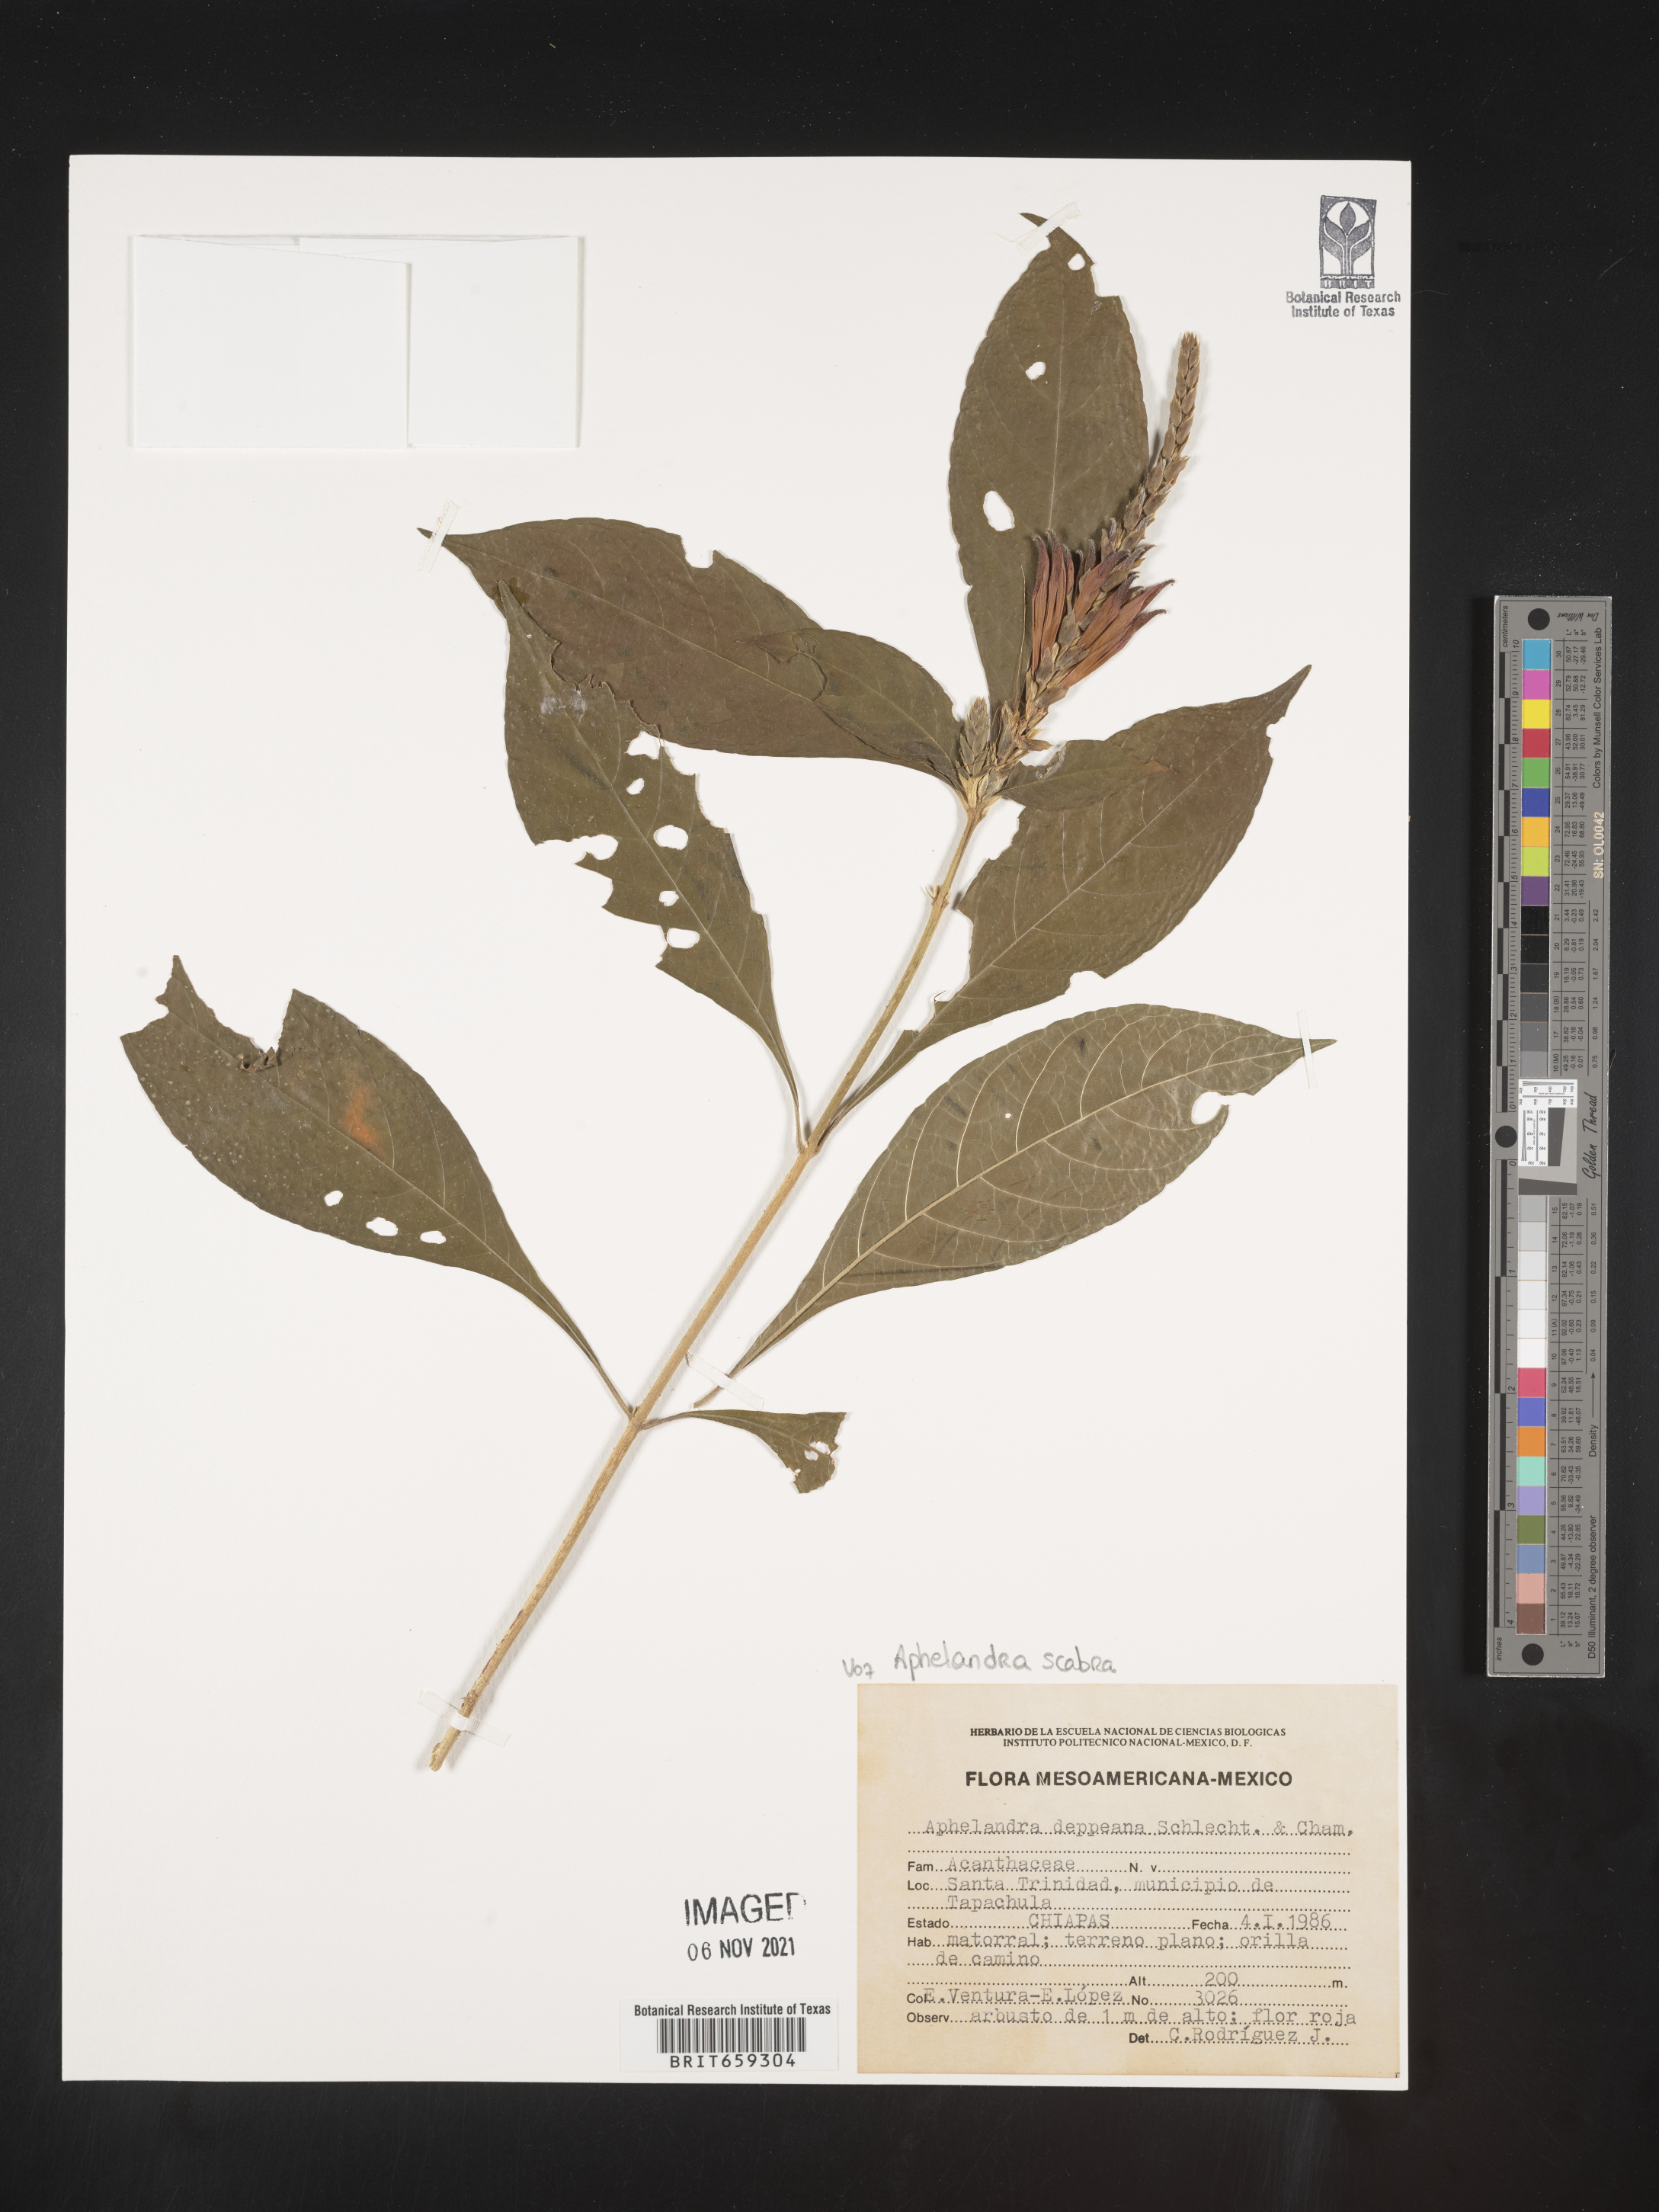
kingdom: Plantae
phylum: Tracheophyta
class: Magnoliopsida
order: Lamiales
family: Acanthaceae
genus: Aphelandra
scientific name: Aphelandra
